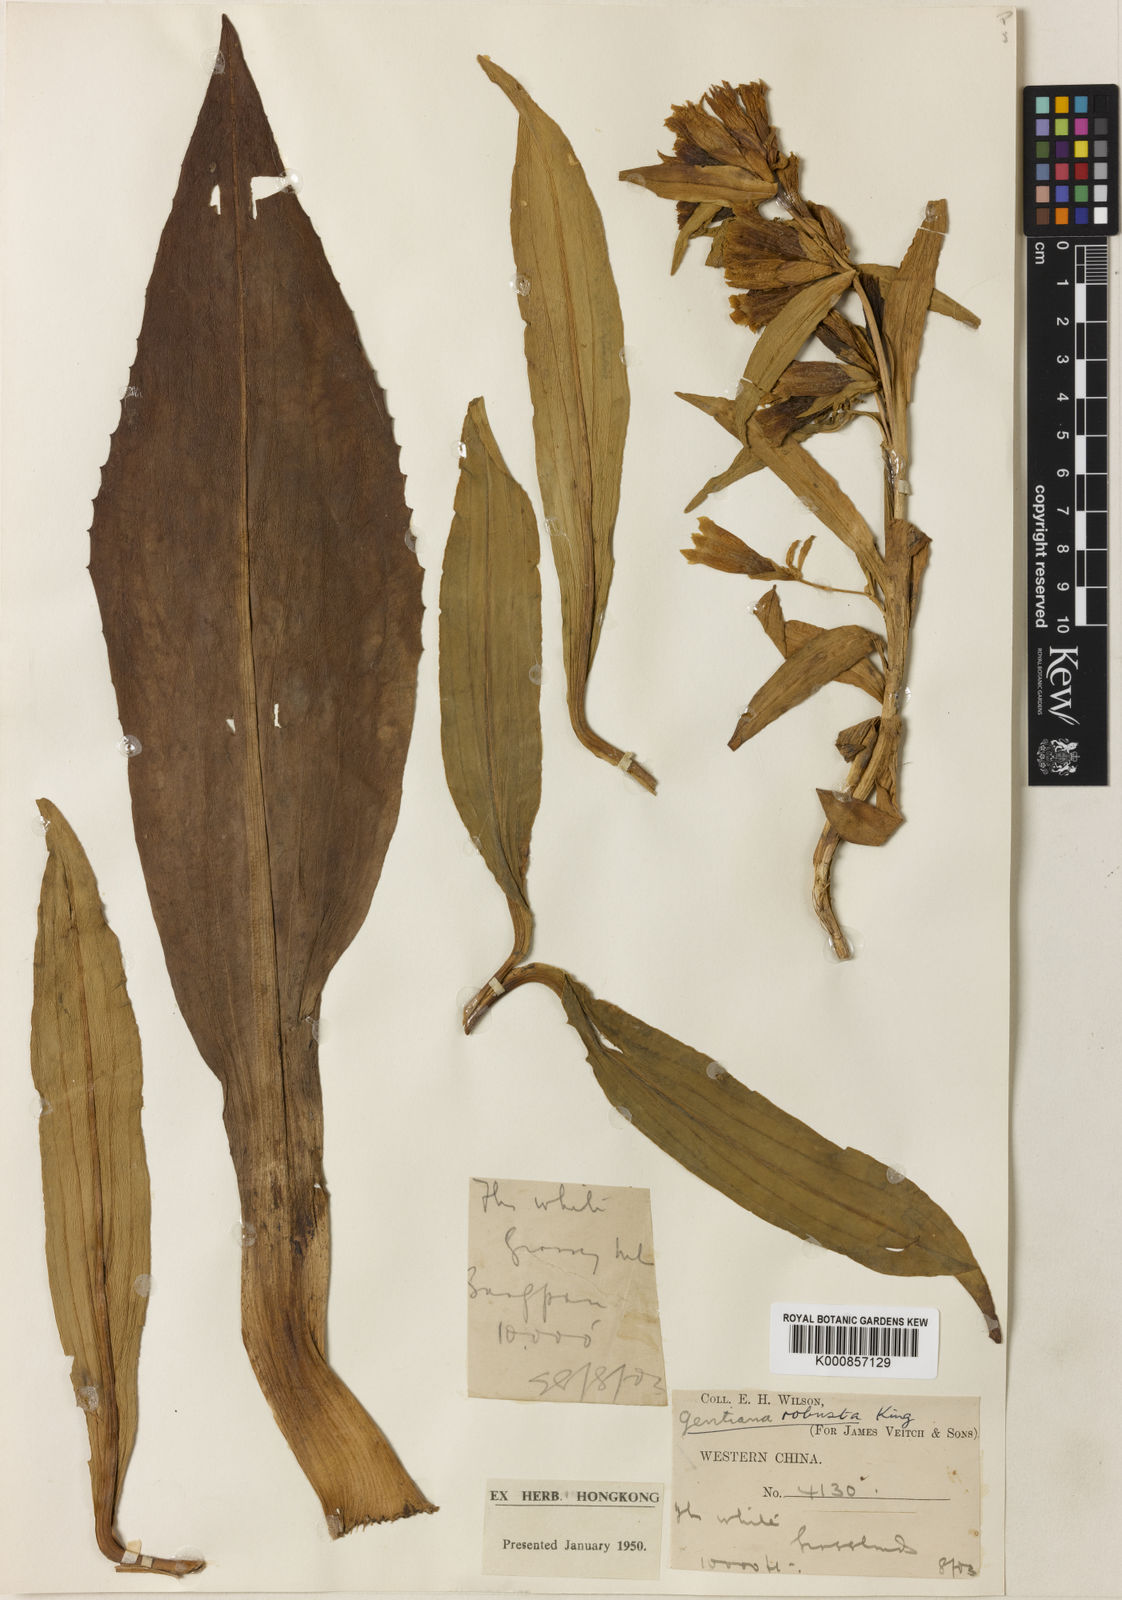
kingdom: Plantae
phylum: Tracheophyta
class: Magnoliopsida
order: Gentianales
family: Gentianaceae
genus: Gentiana
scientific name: Gentiana dendrologi
